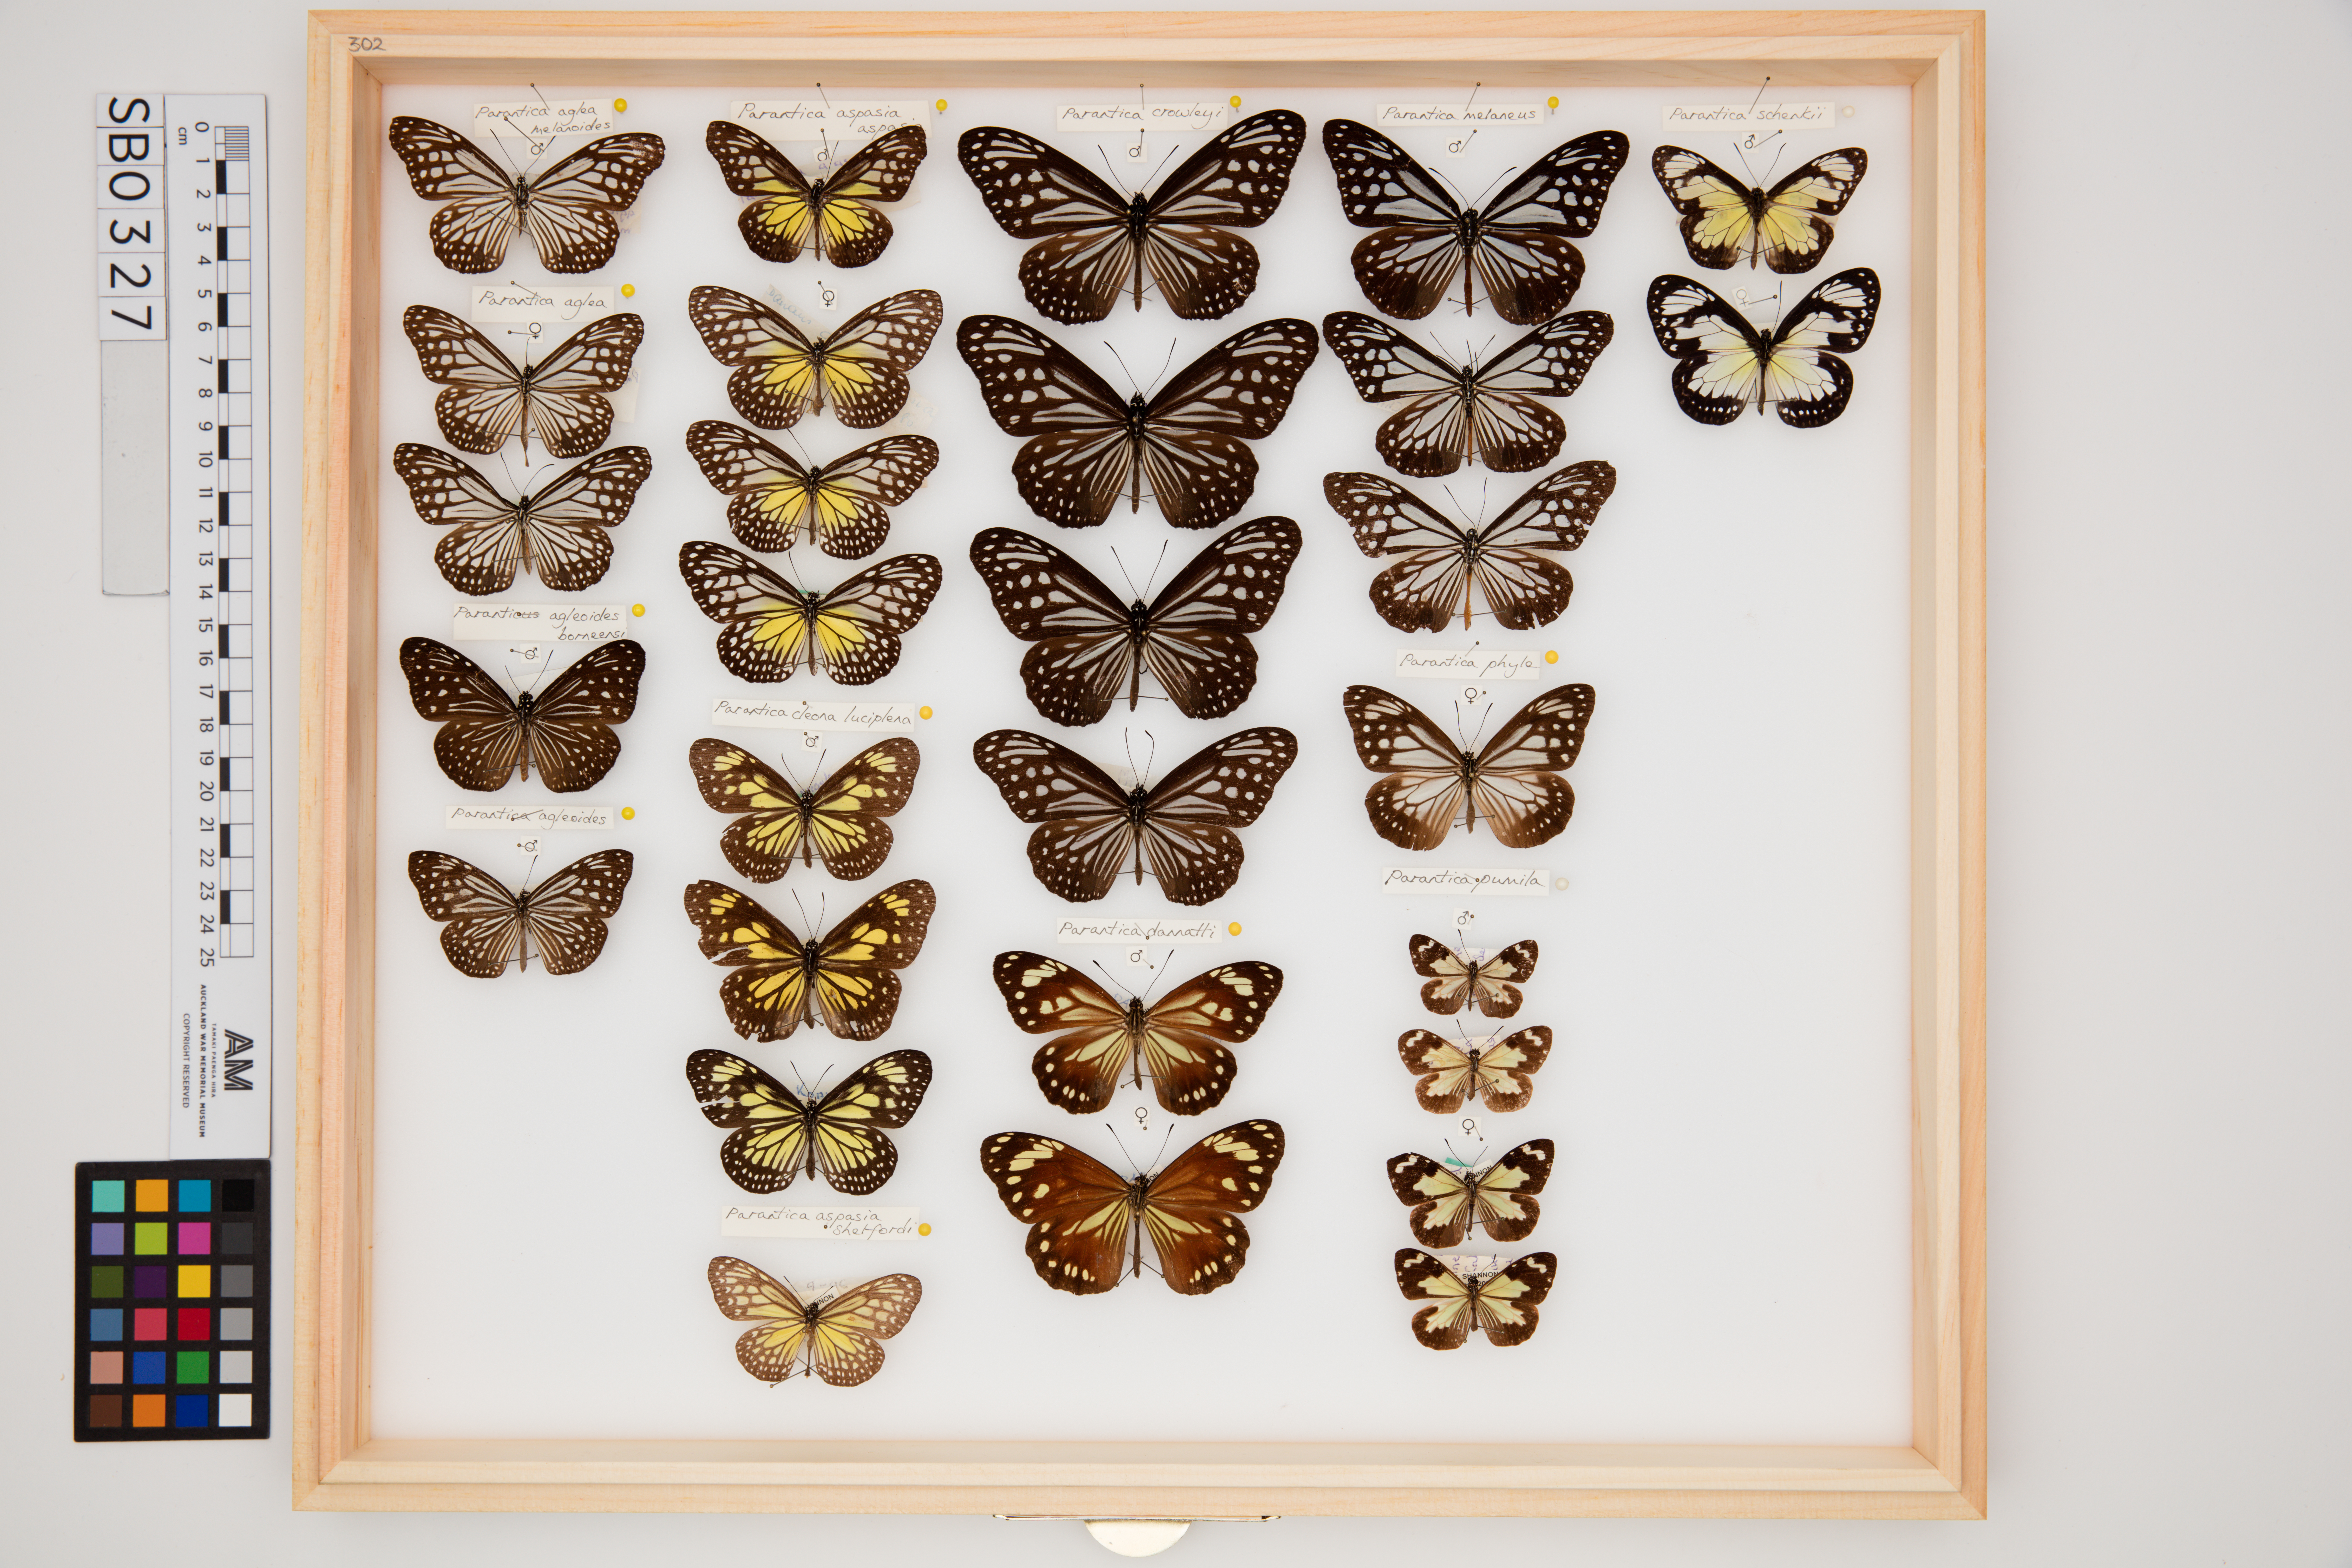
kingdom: Animalia
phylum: Arthropoda
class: Insecta
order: Lepidoptera
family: Nymphalidae
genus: Parantica
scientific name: Parantica cleona
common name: Yellow tiger
